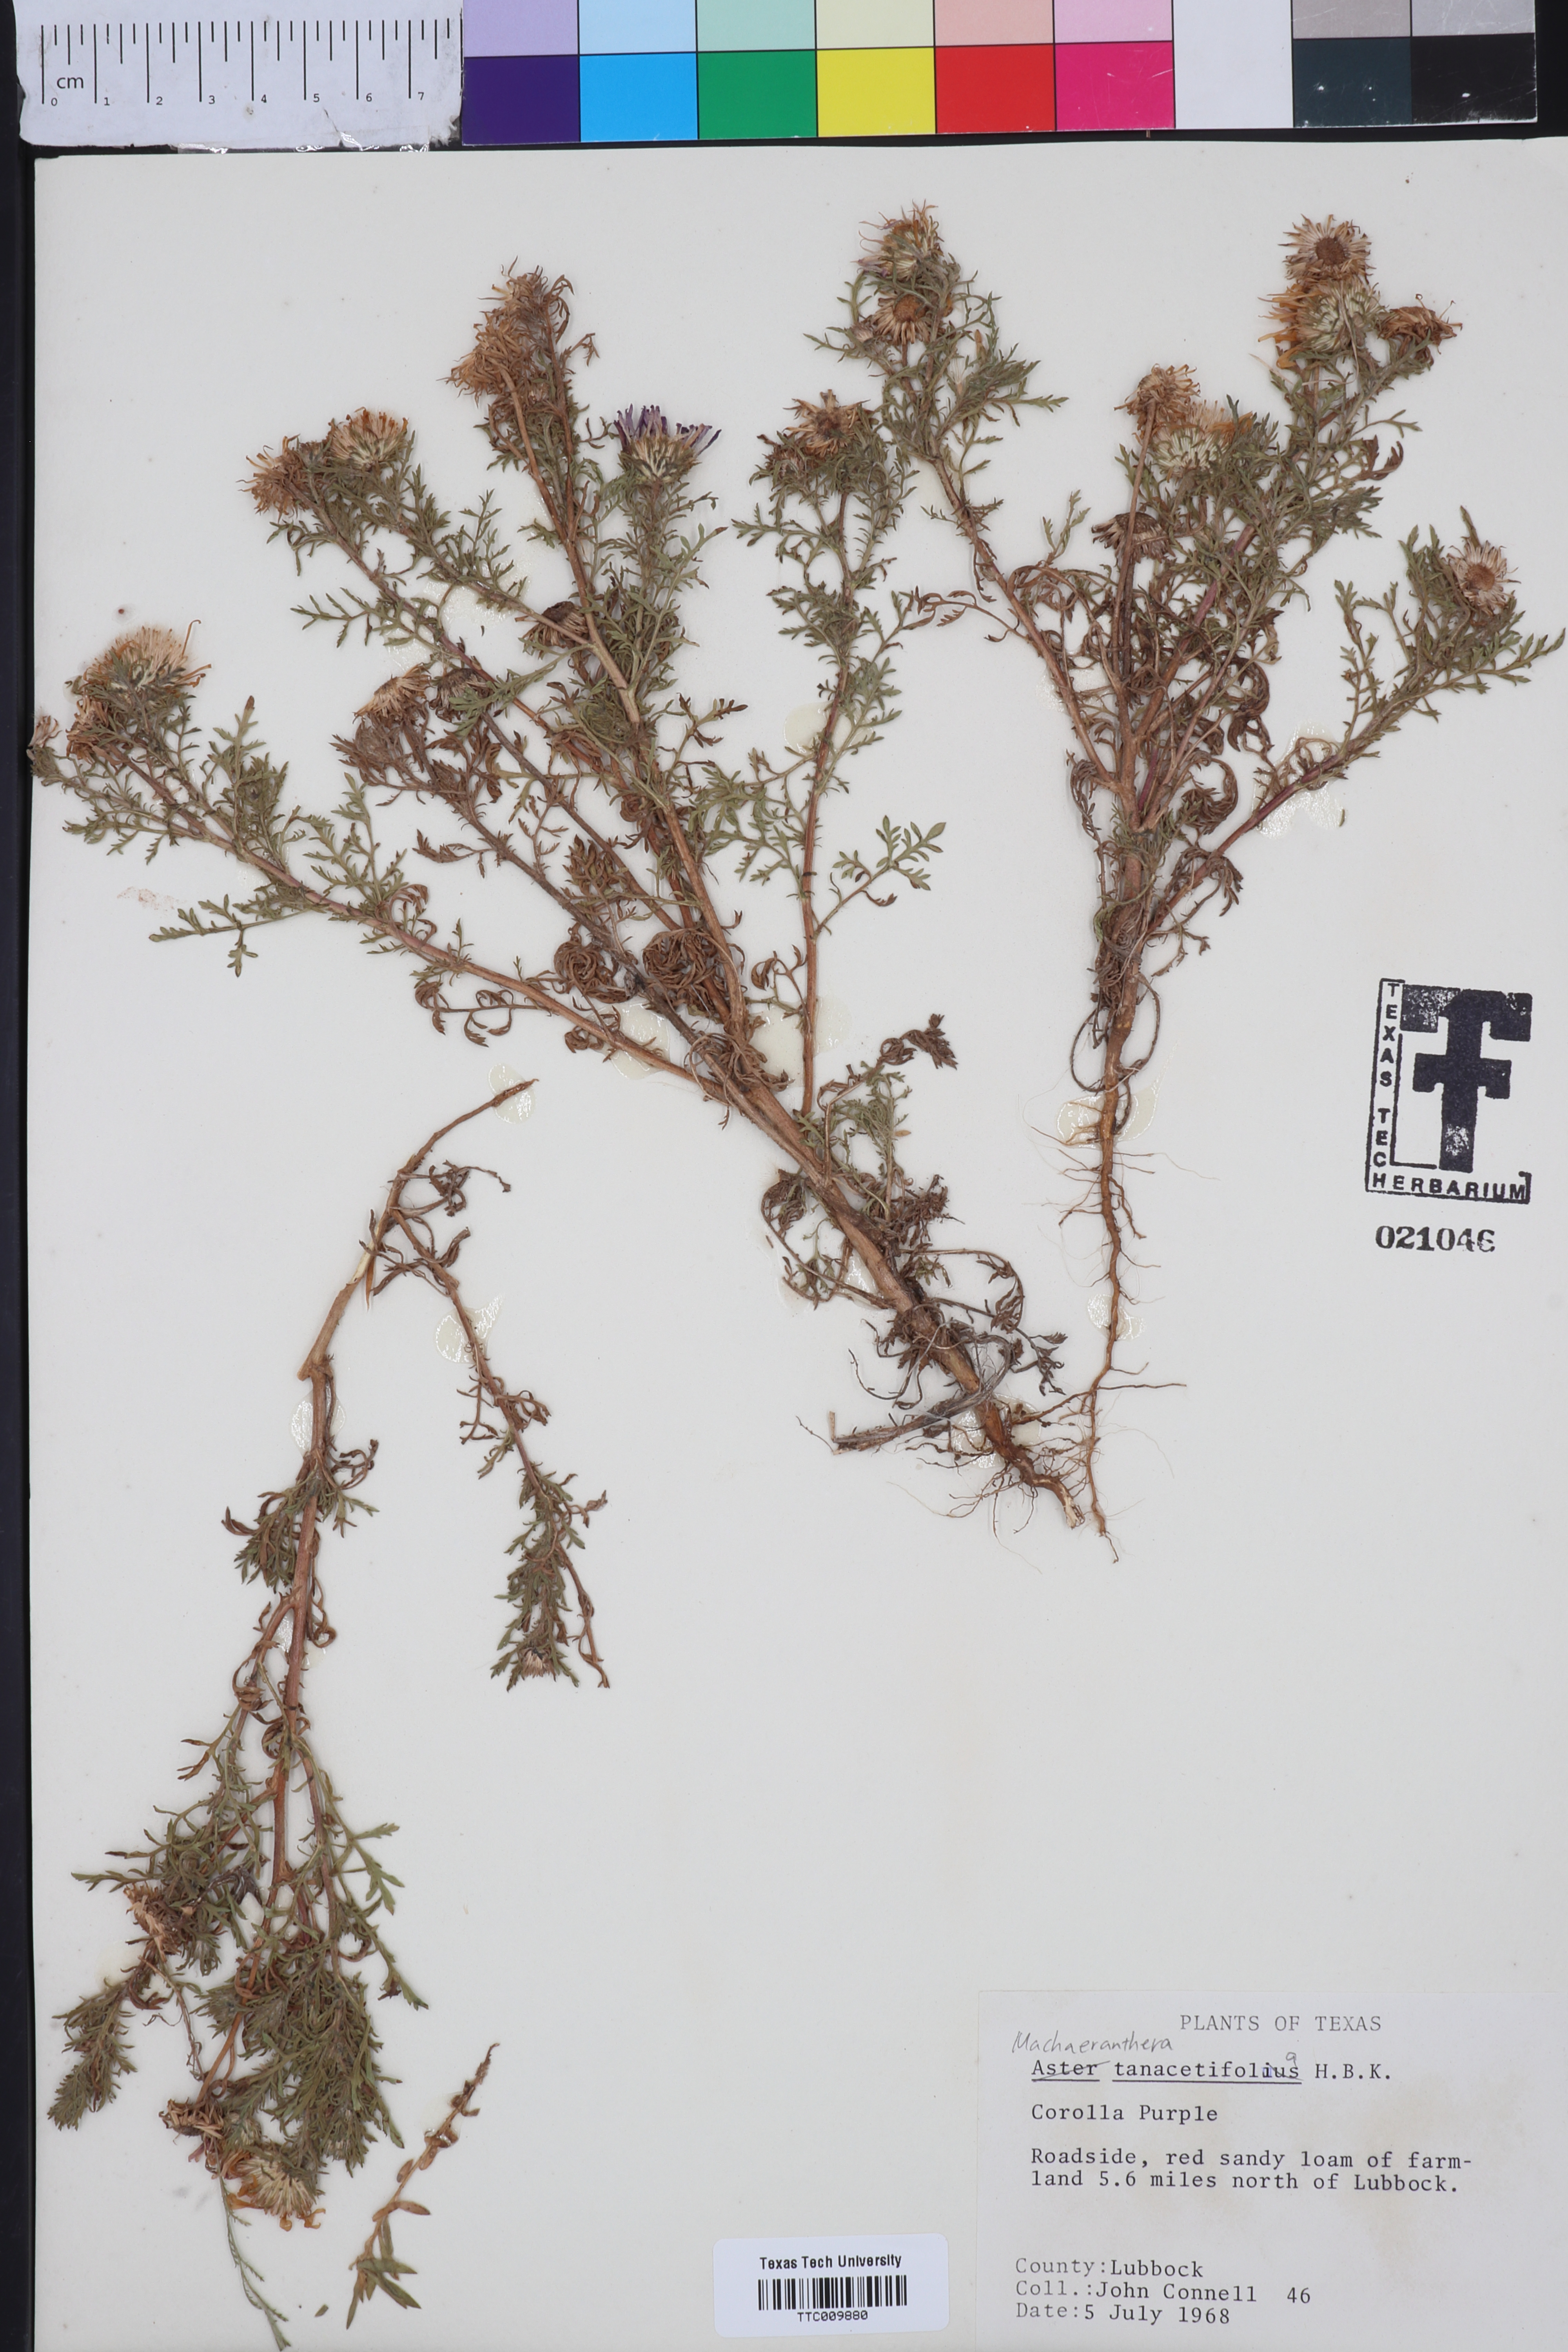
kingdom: Plantae
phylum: Tracheophyta
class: Magnoliopsida
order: Asterales
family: Asteraceae
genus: Machaeranthera
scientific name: Machaeranthera tanacetifolia
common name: Tansy-aster
